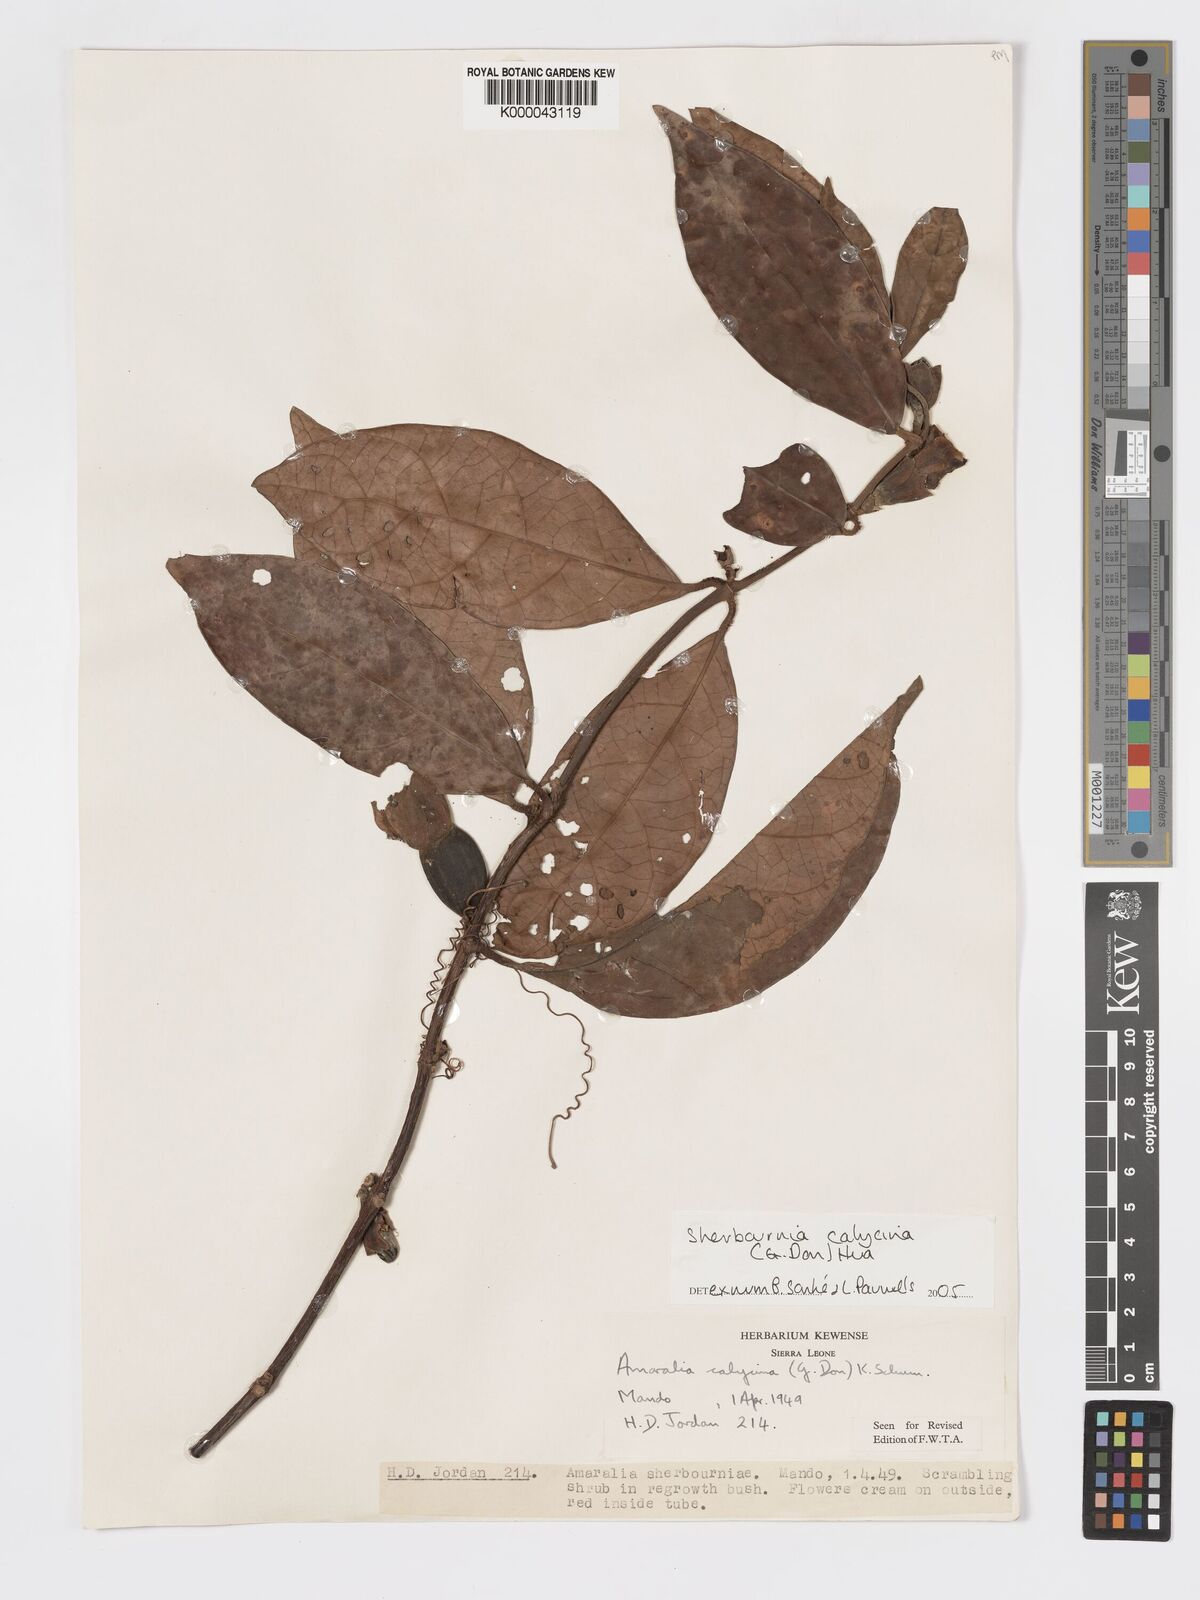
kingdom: Plantae
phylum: Tracheophyta
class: Magnoliopsida
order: Gentianales
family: Rubiaceae
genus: Sherbournia
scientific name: Sherbournia calycina
